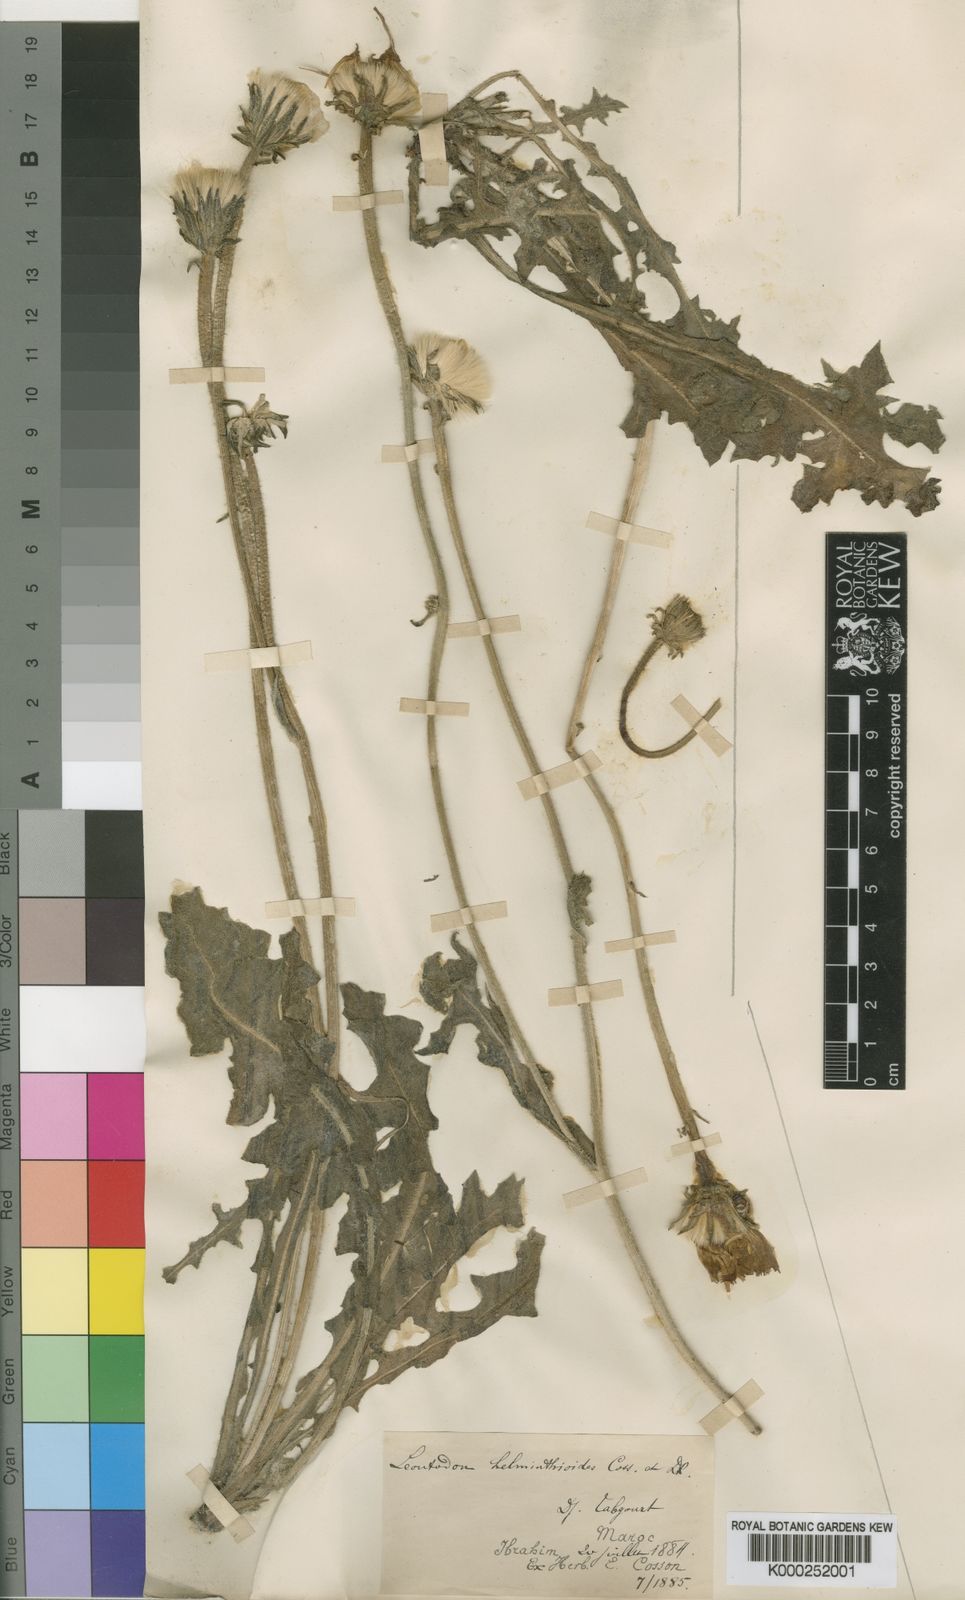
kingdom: Plantae
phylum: Tracheophyta
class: Magnoliopsida
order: Asterales
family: Asteraceae
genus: Leontodon
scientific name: Leontodon
